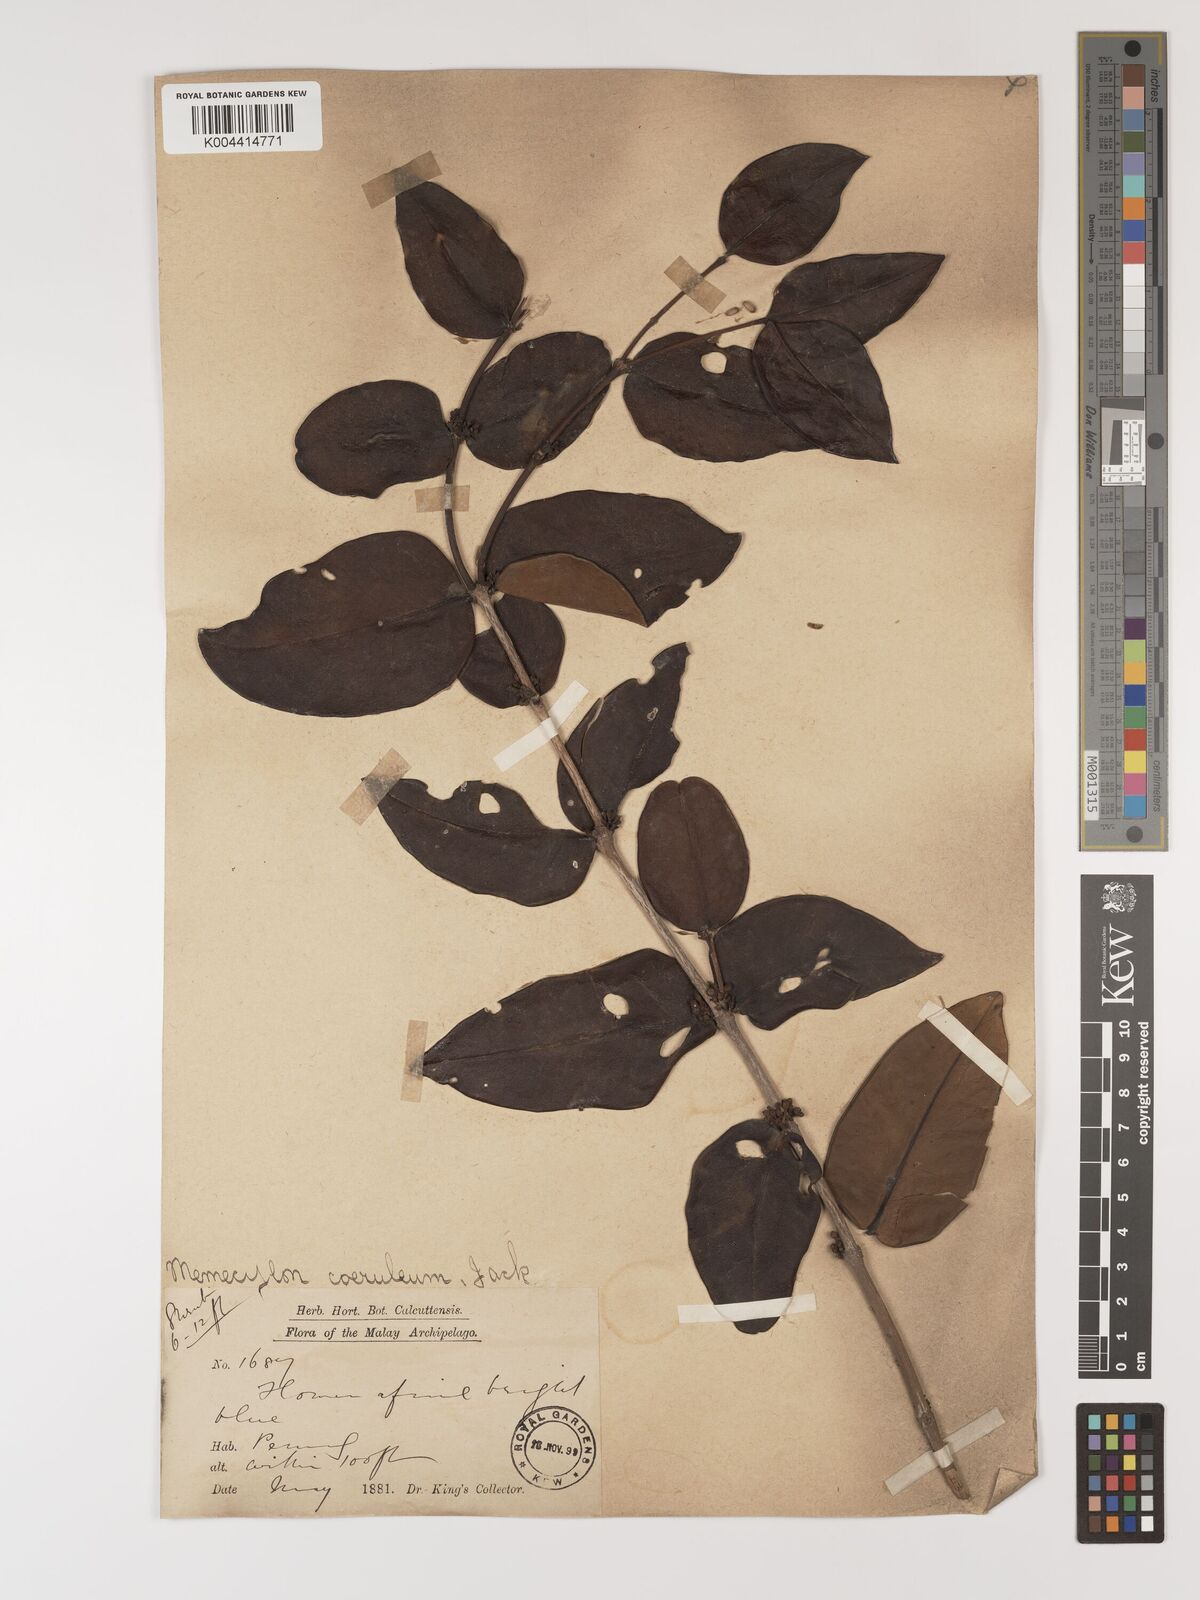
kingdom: Plantae
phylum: Tracheophyta
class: Magnoliopsida
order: Myrtales
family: Melastomataceae
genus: Memecylon
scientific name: Memecylon
